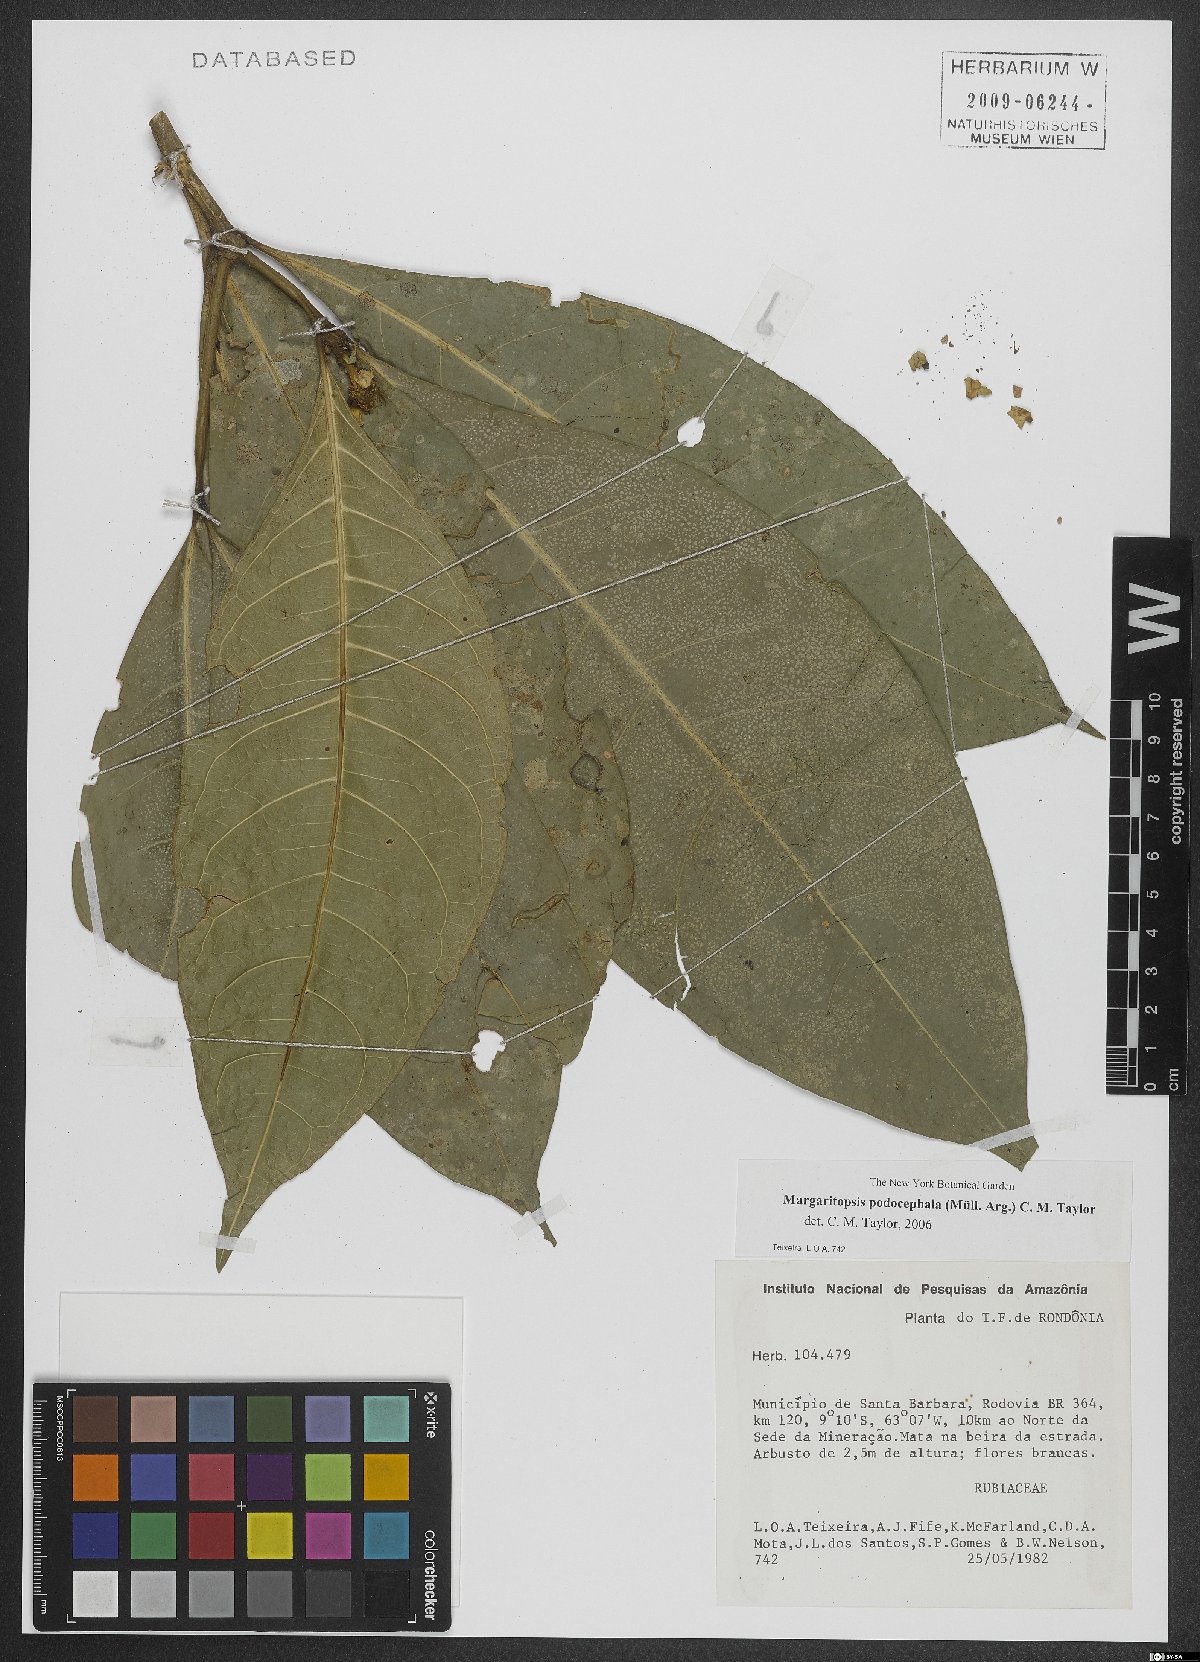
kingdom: Plantae
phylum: Tracheophyta
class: Magnoliopsida
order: Gentianales
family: Rubiaceae
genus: Eumachia
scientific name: Eumachia podocephala
